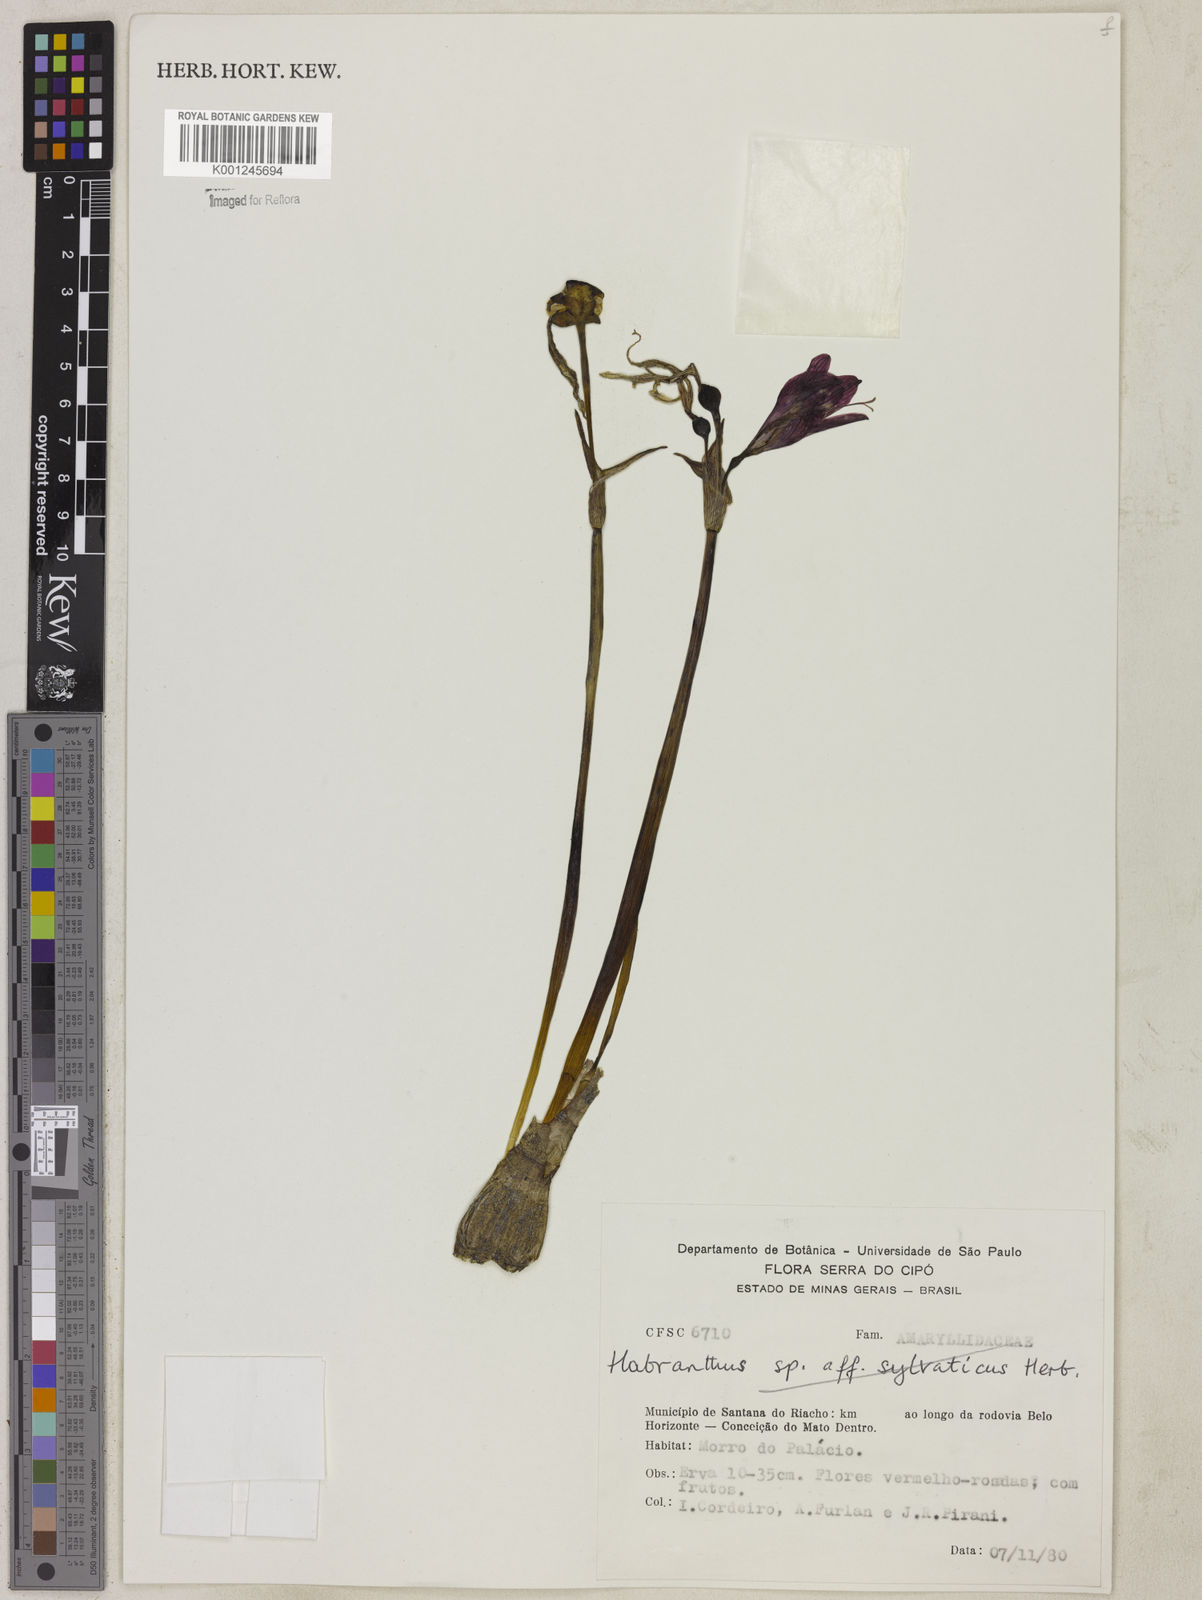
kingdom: Plantae
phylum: Tracheophyta
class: Liliopsida
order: Asparagales
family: Amaryllidaceae
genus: Zephyranthes
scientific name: Zephyranthes sylvatica
